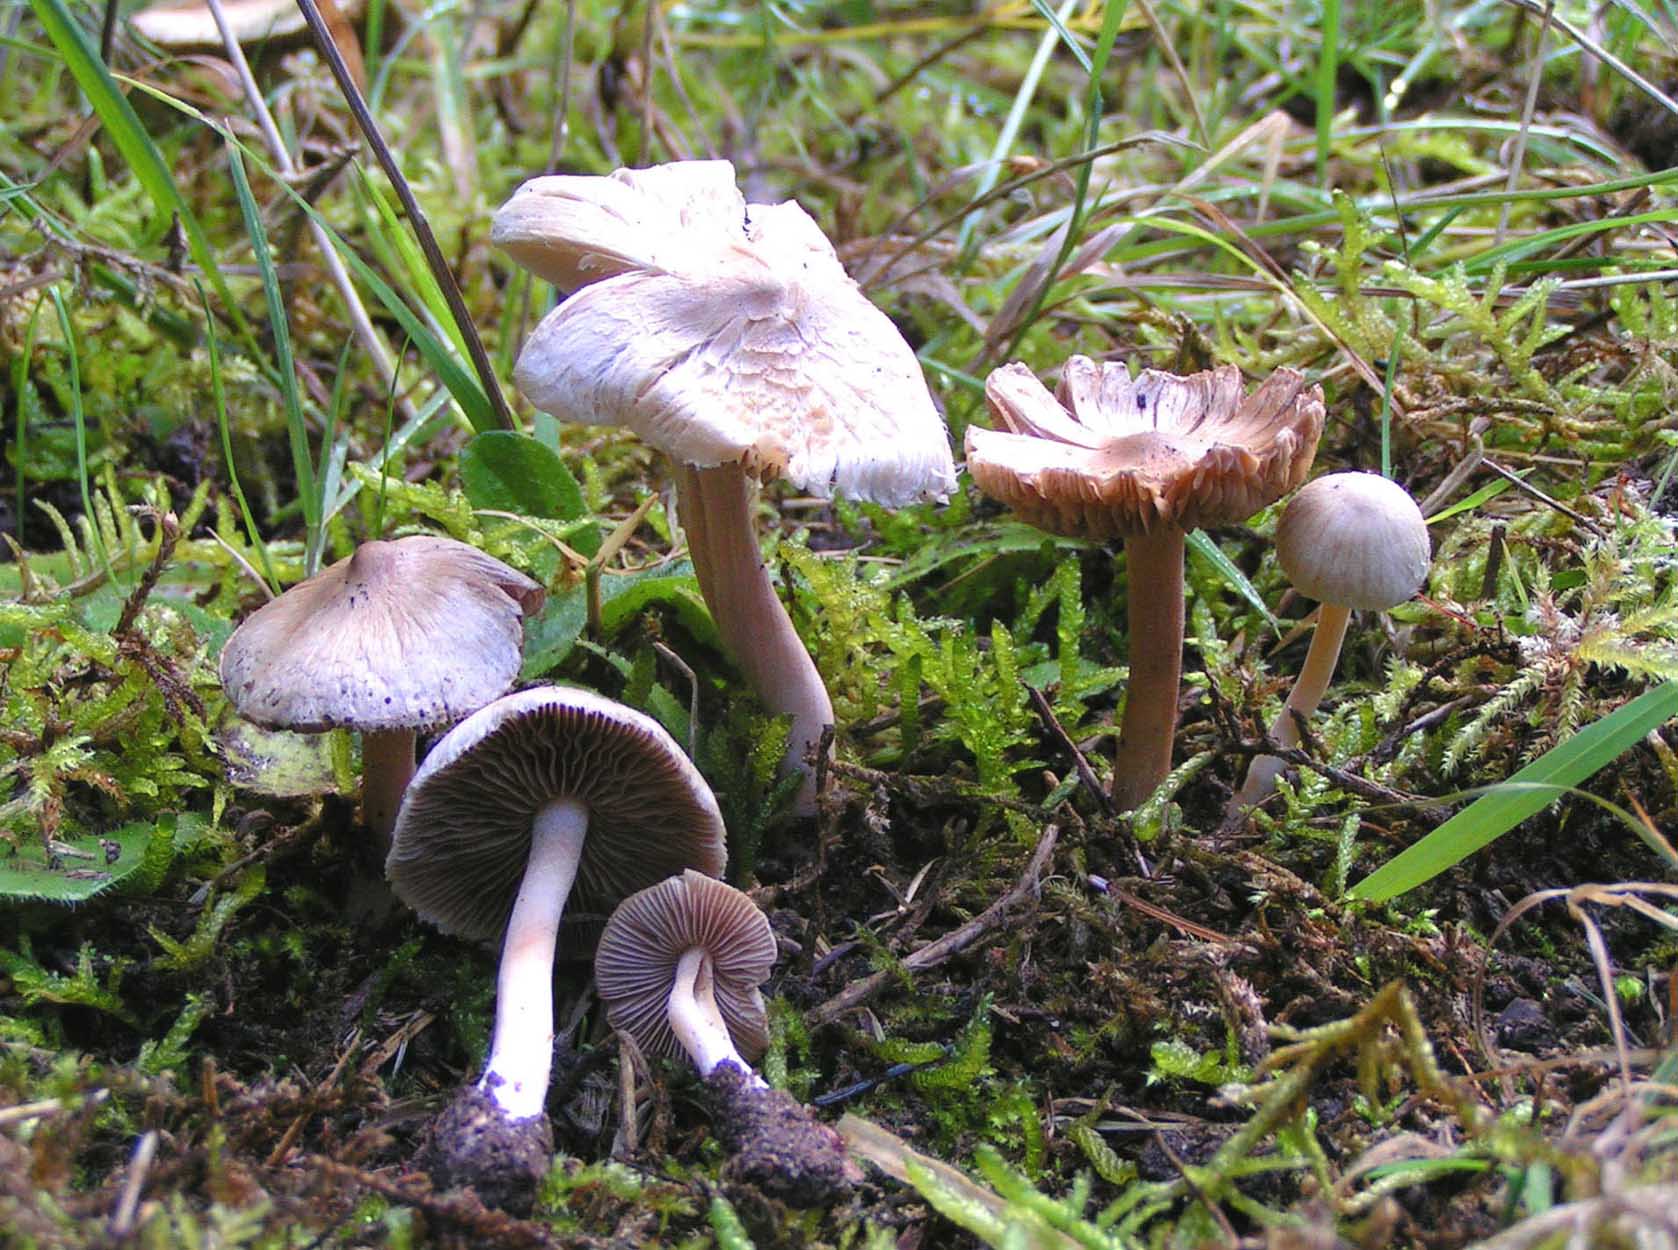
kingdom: Fungi
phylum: Basidiomycota
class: Agaricomycetes
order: Agaricales
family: Inocybaceae
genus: Inocybe
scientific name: Inocybe
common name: trævlhat
